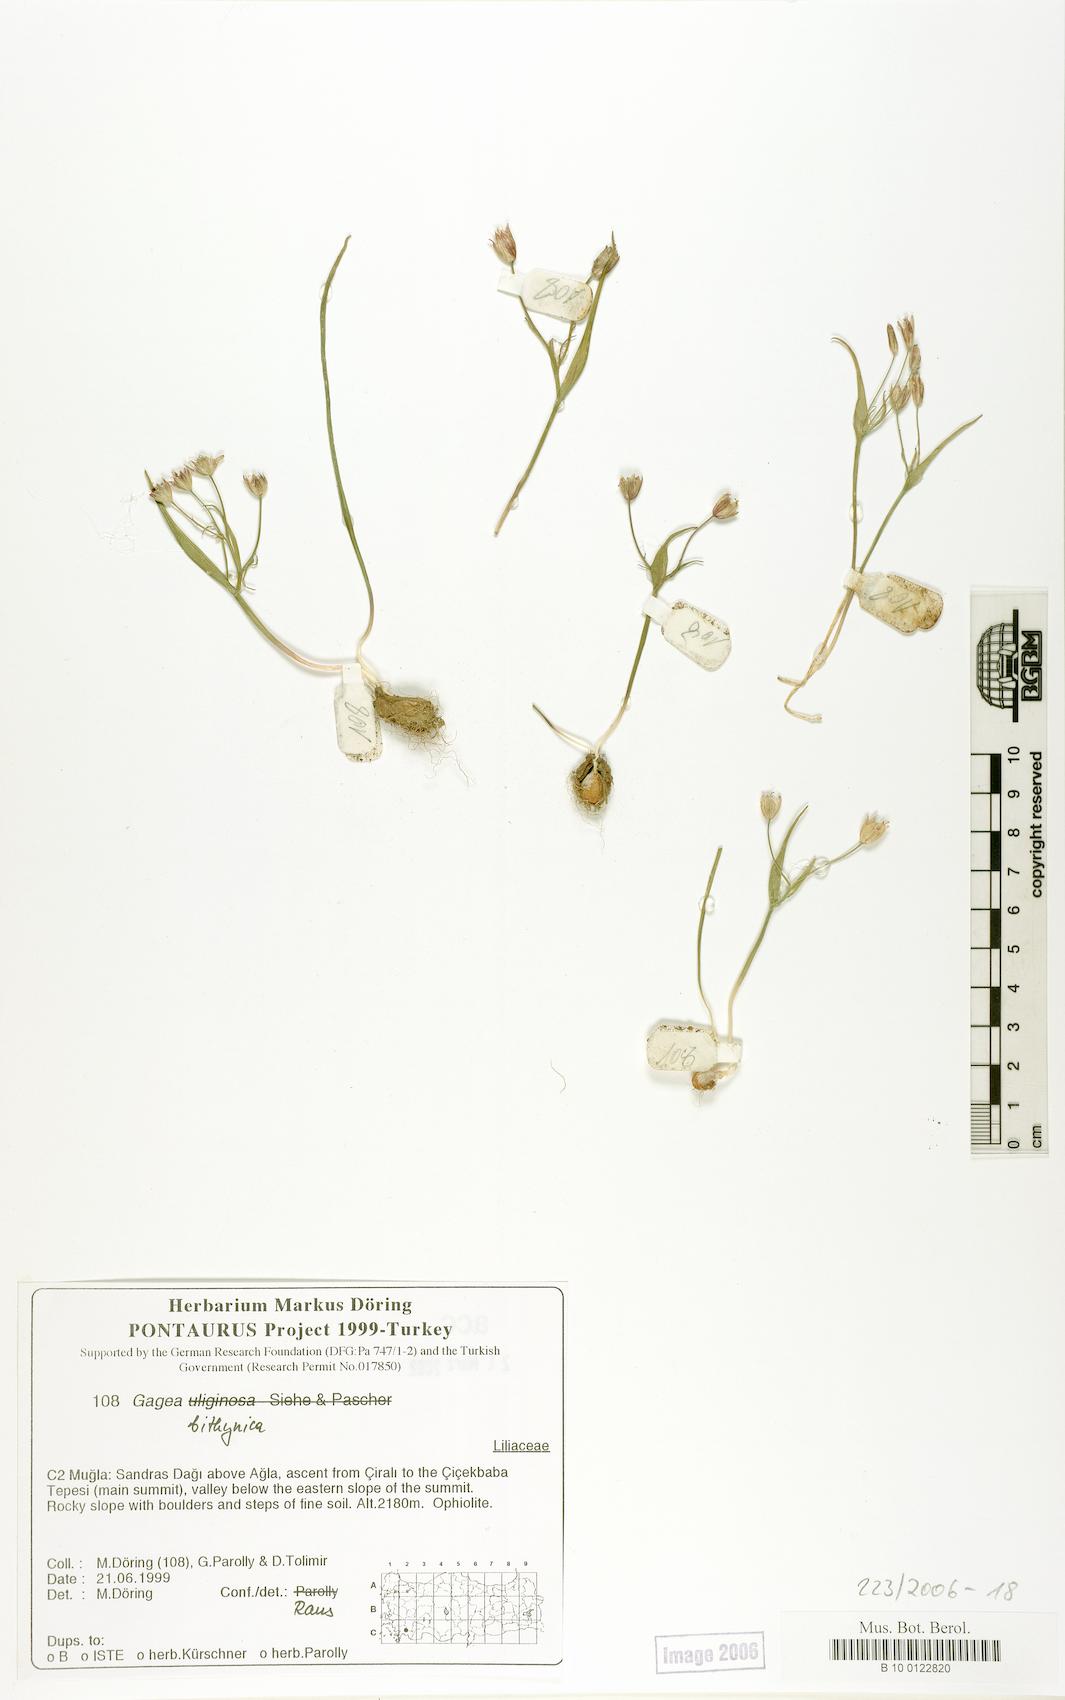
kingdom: Plantae
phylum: Tracheophyta
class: Liliopsida
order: Liliales
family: Liliaceae
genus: Gagea
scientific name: Gagea bithynica
